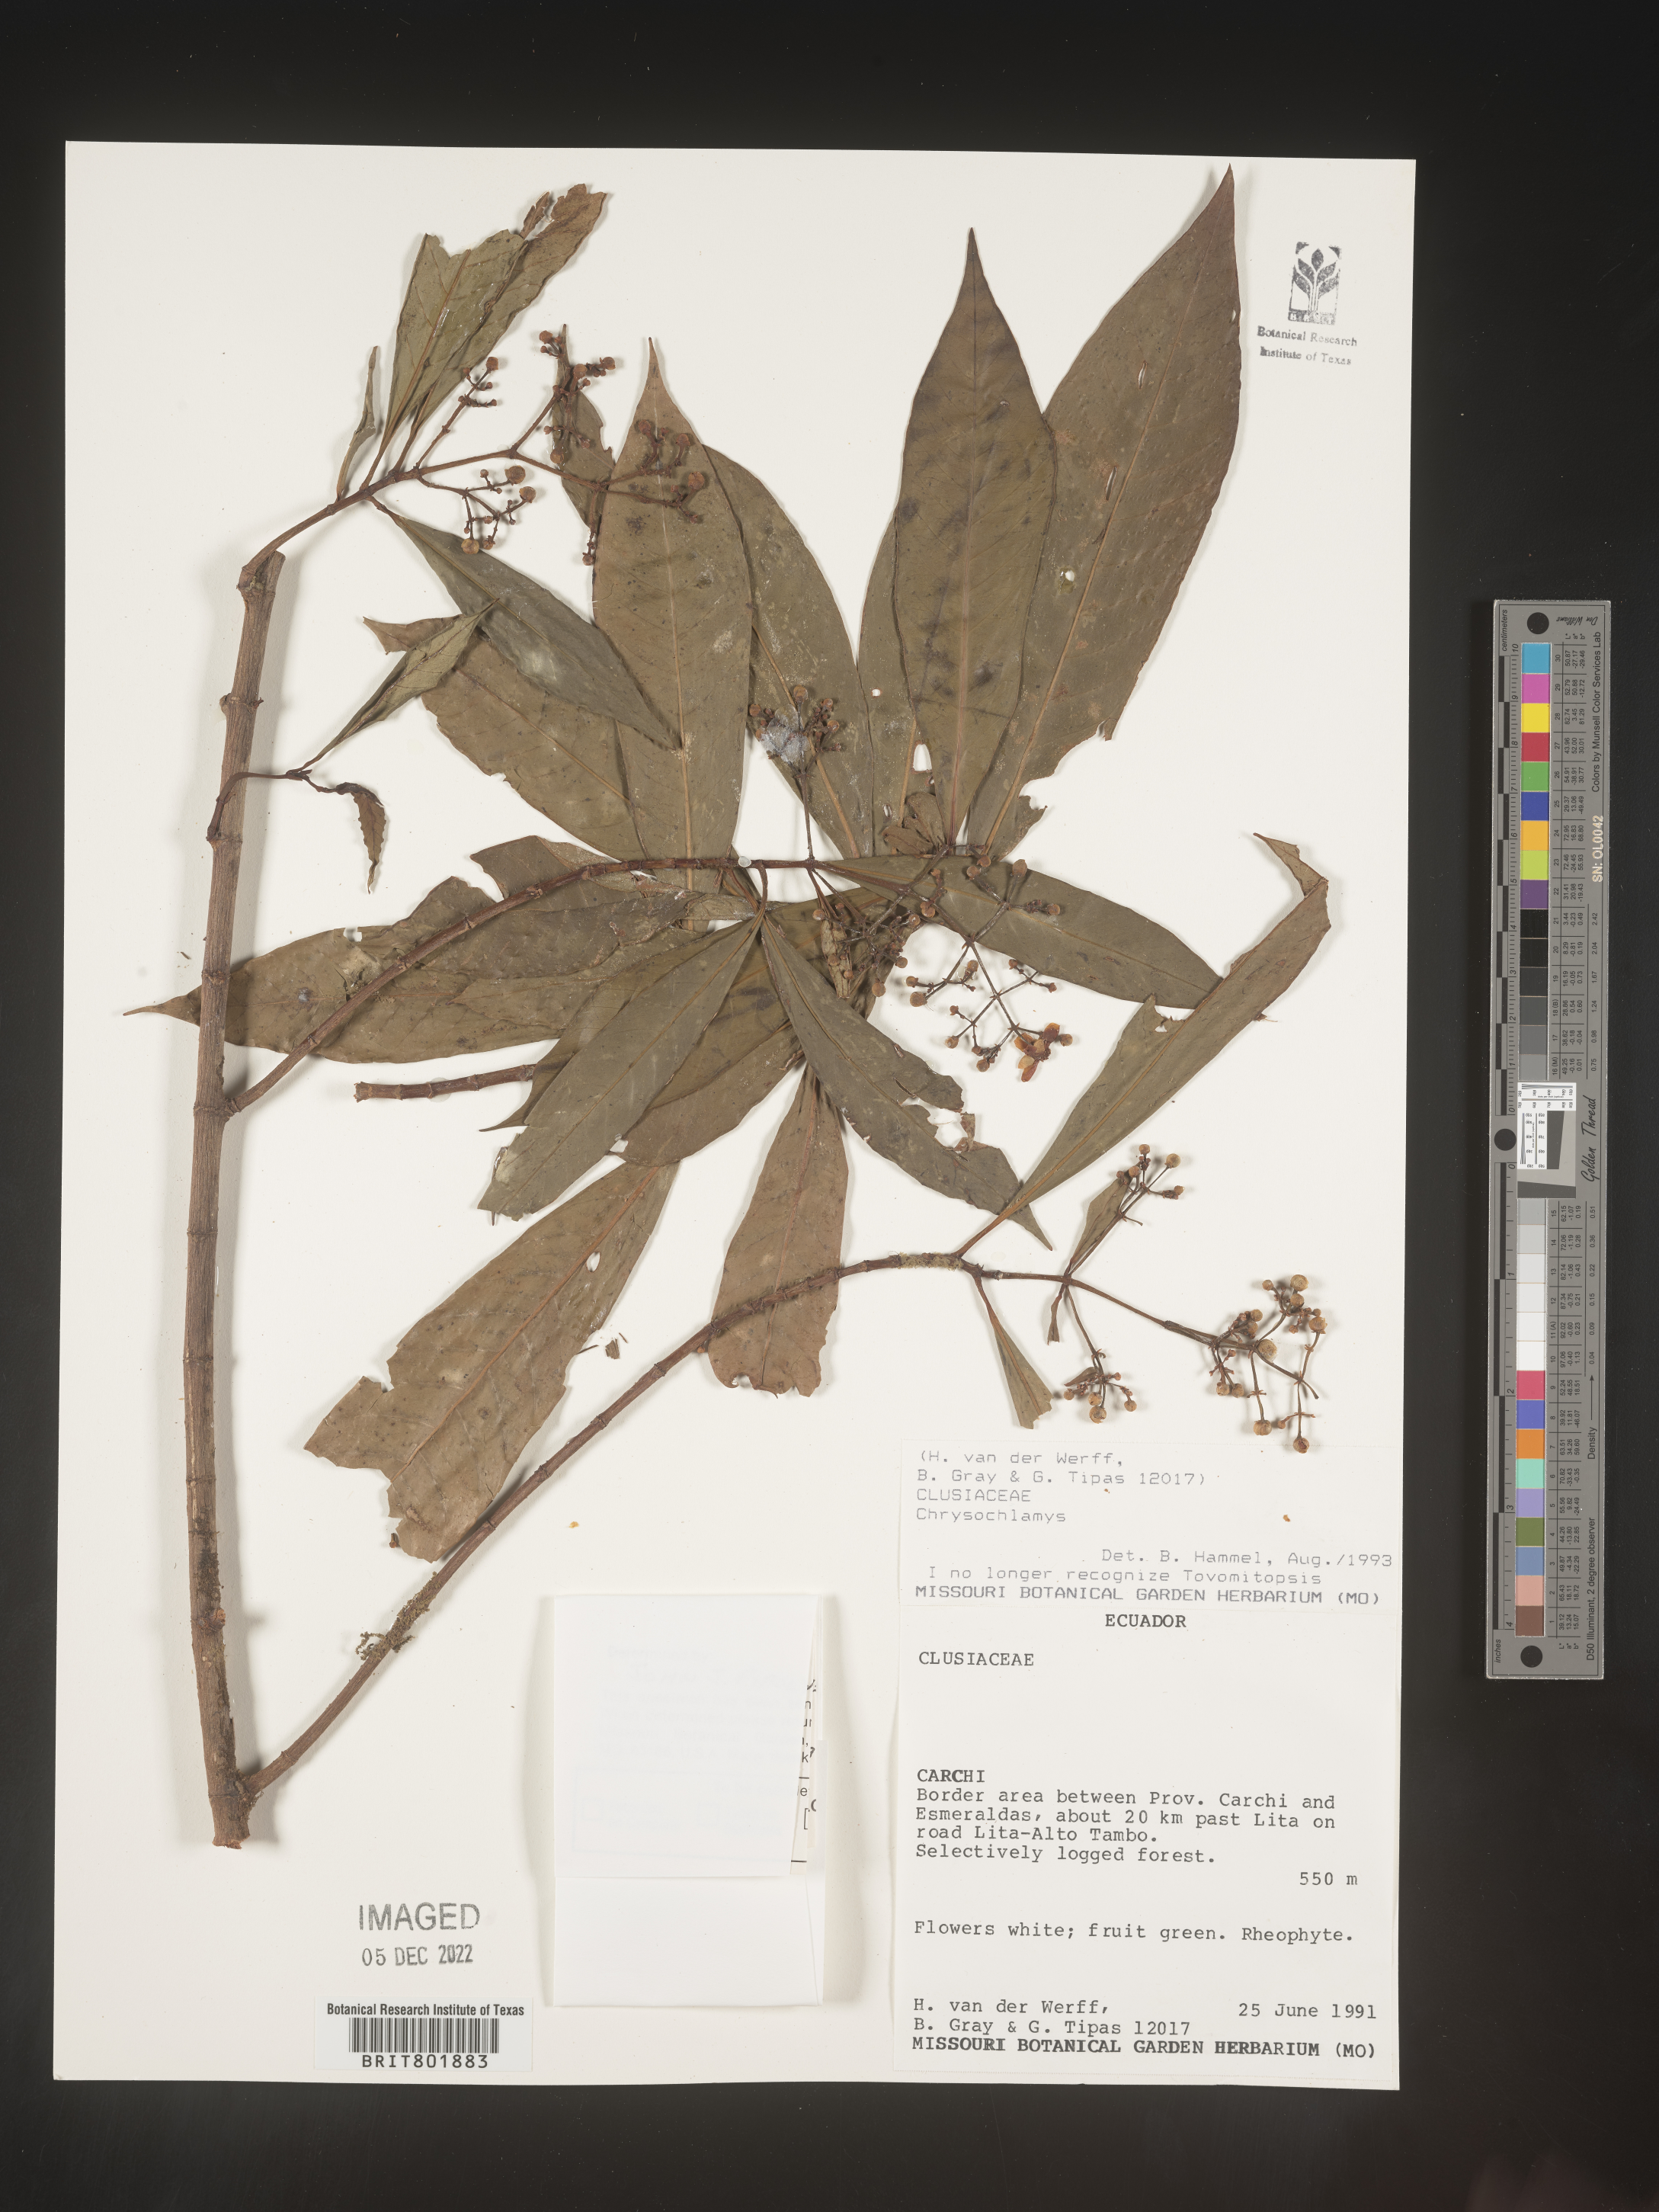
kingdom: Plantae
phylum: Tracheophyta
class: Magnoliopsida
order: Malpighiales
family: Clusiaceae
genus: Chrysochlamys
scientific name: Chrysochlamys
